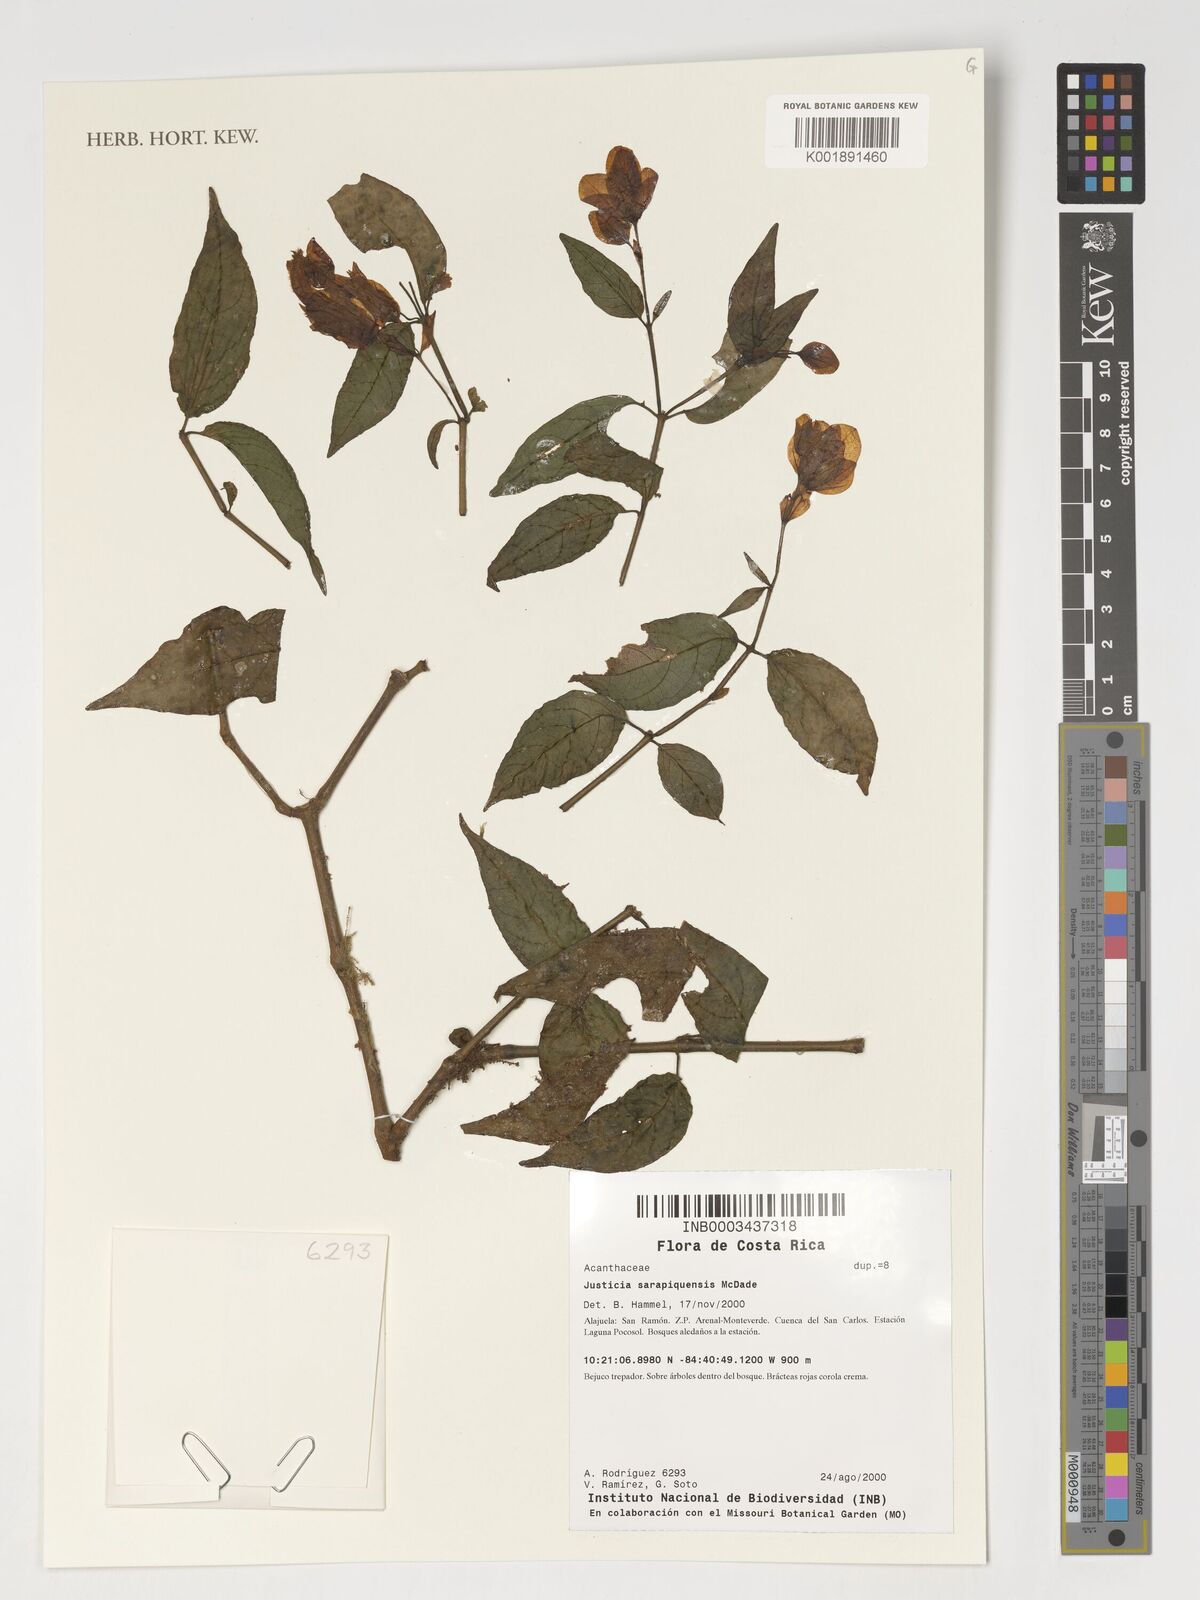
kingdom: Plantae
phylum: Tracheophyta
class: Magnoliopsida
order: Lamiales
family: Acanthaceae
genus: Justicia
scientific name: Justicia sarapiquensis
